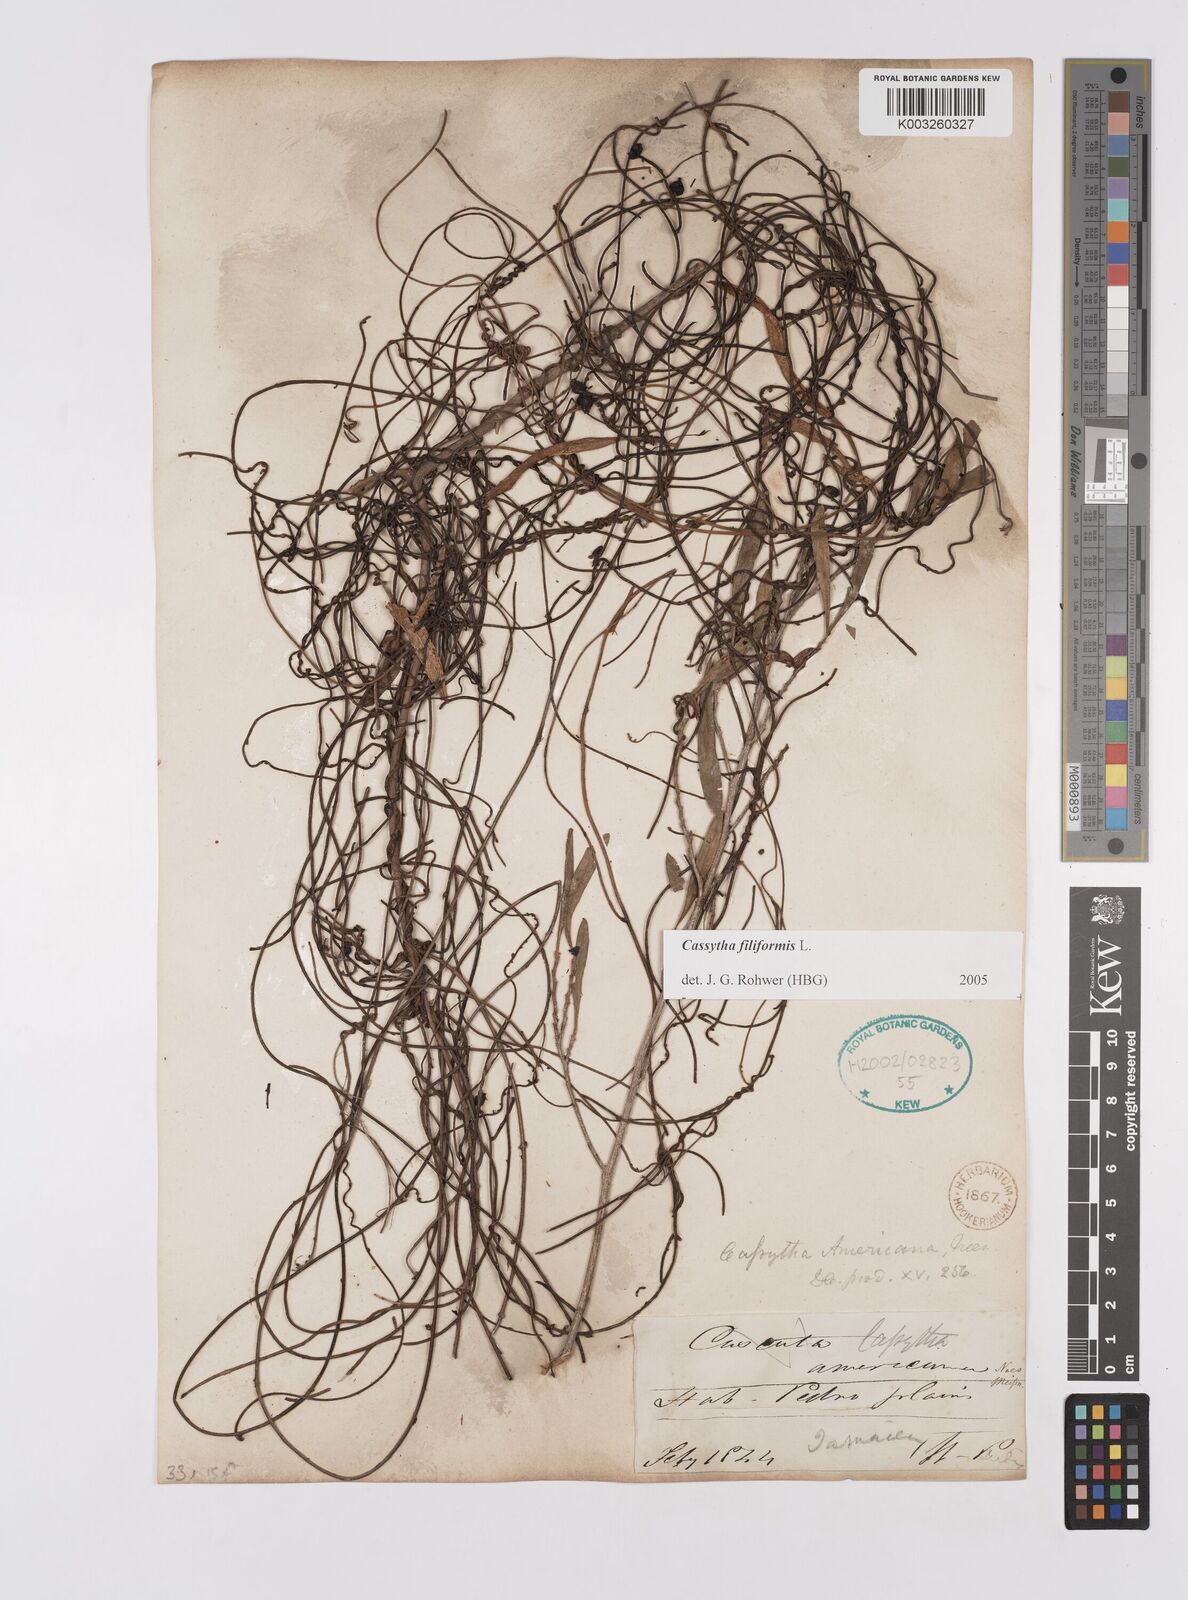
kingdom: Plantae
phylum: Tracheophyta
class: Magnoliopsida
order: Laurales
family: Lauraceae
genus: Cassytha
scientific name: Cassytha filiformis
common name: Dodder-laurel
